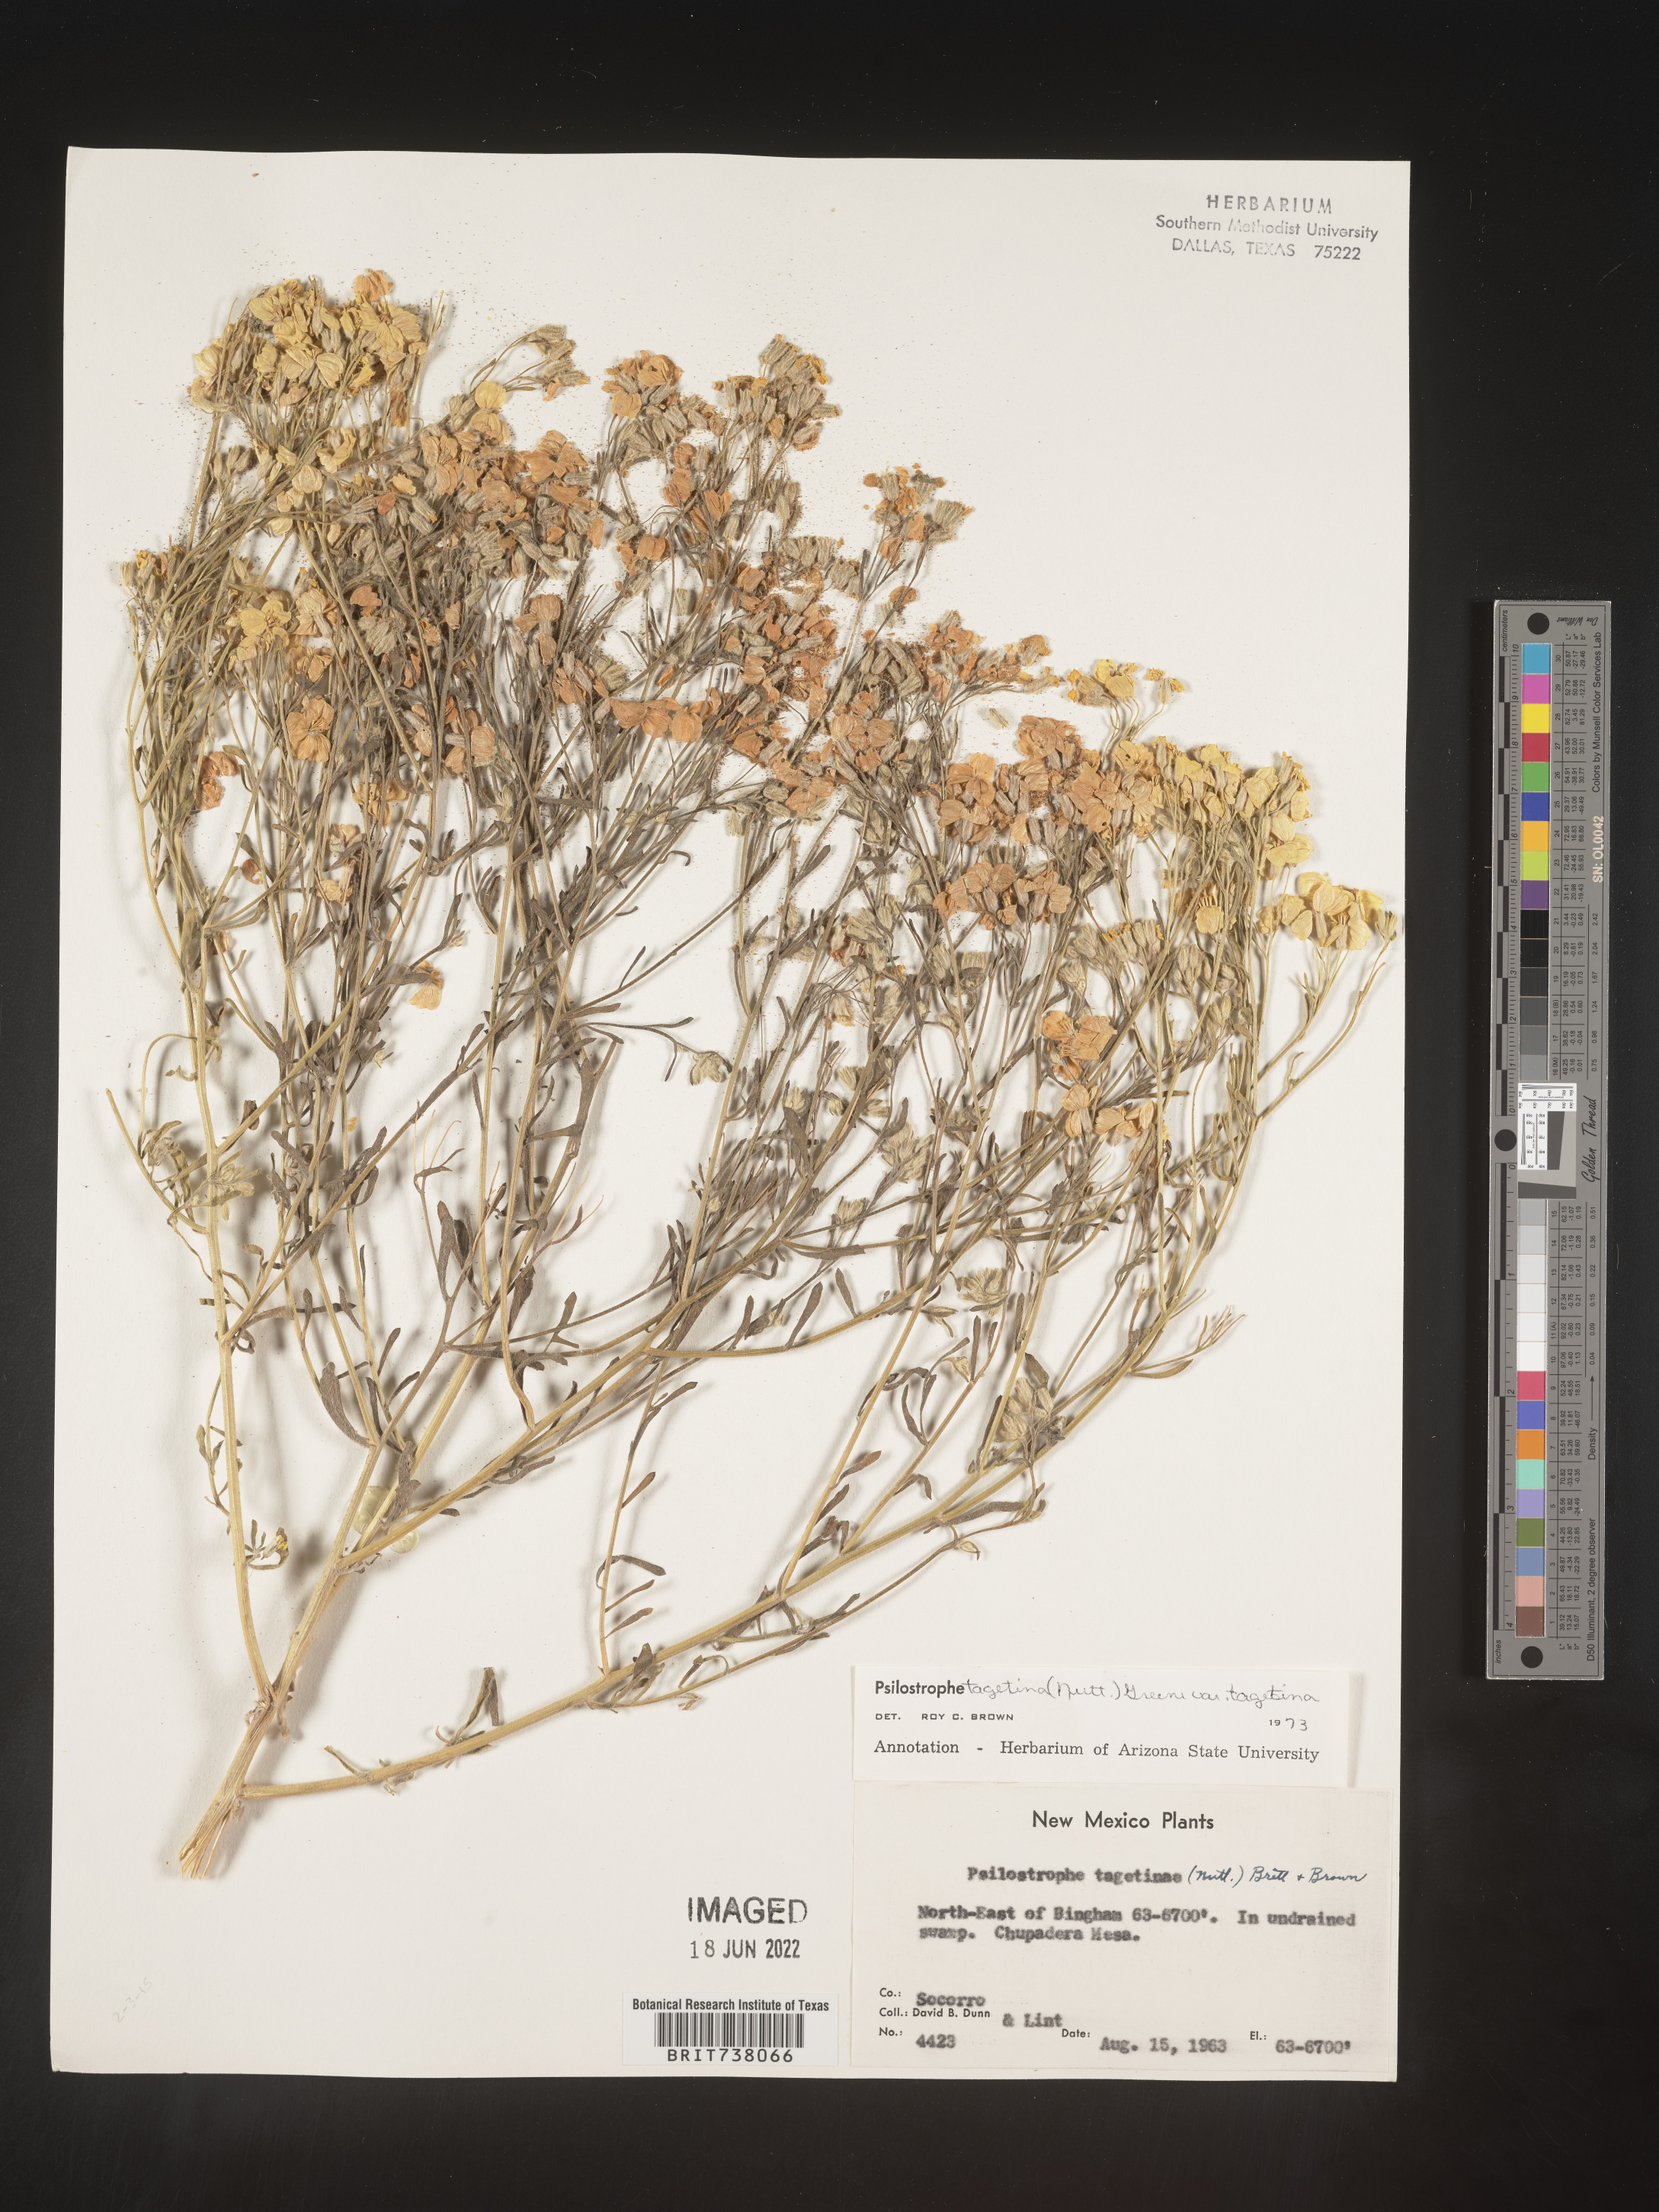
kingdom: Plantae
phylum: Tracheophyta
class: Magnoliopsida
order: Asterales
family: Asteraceae
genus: Psilostrophe
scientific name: Psilostrophe tagetina
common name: Marigold paper-flower
